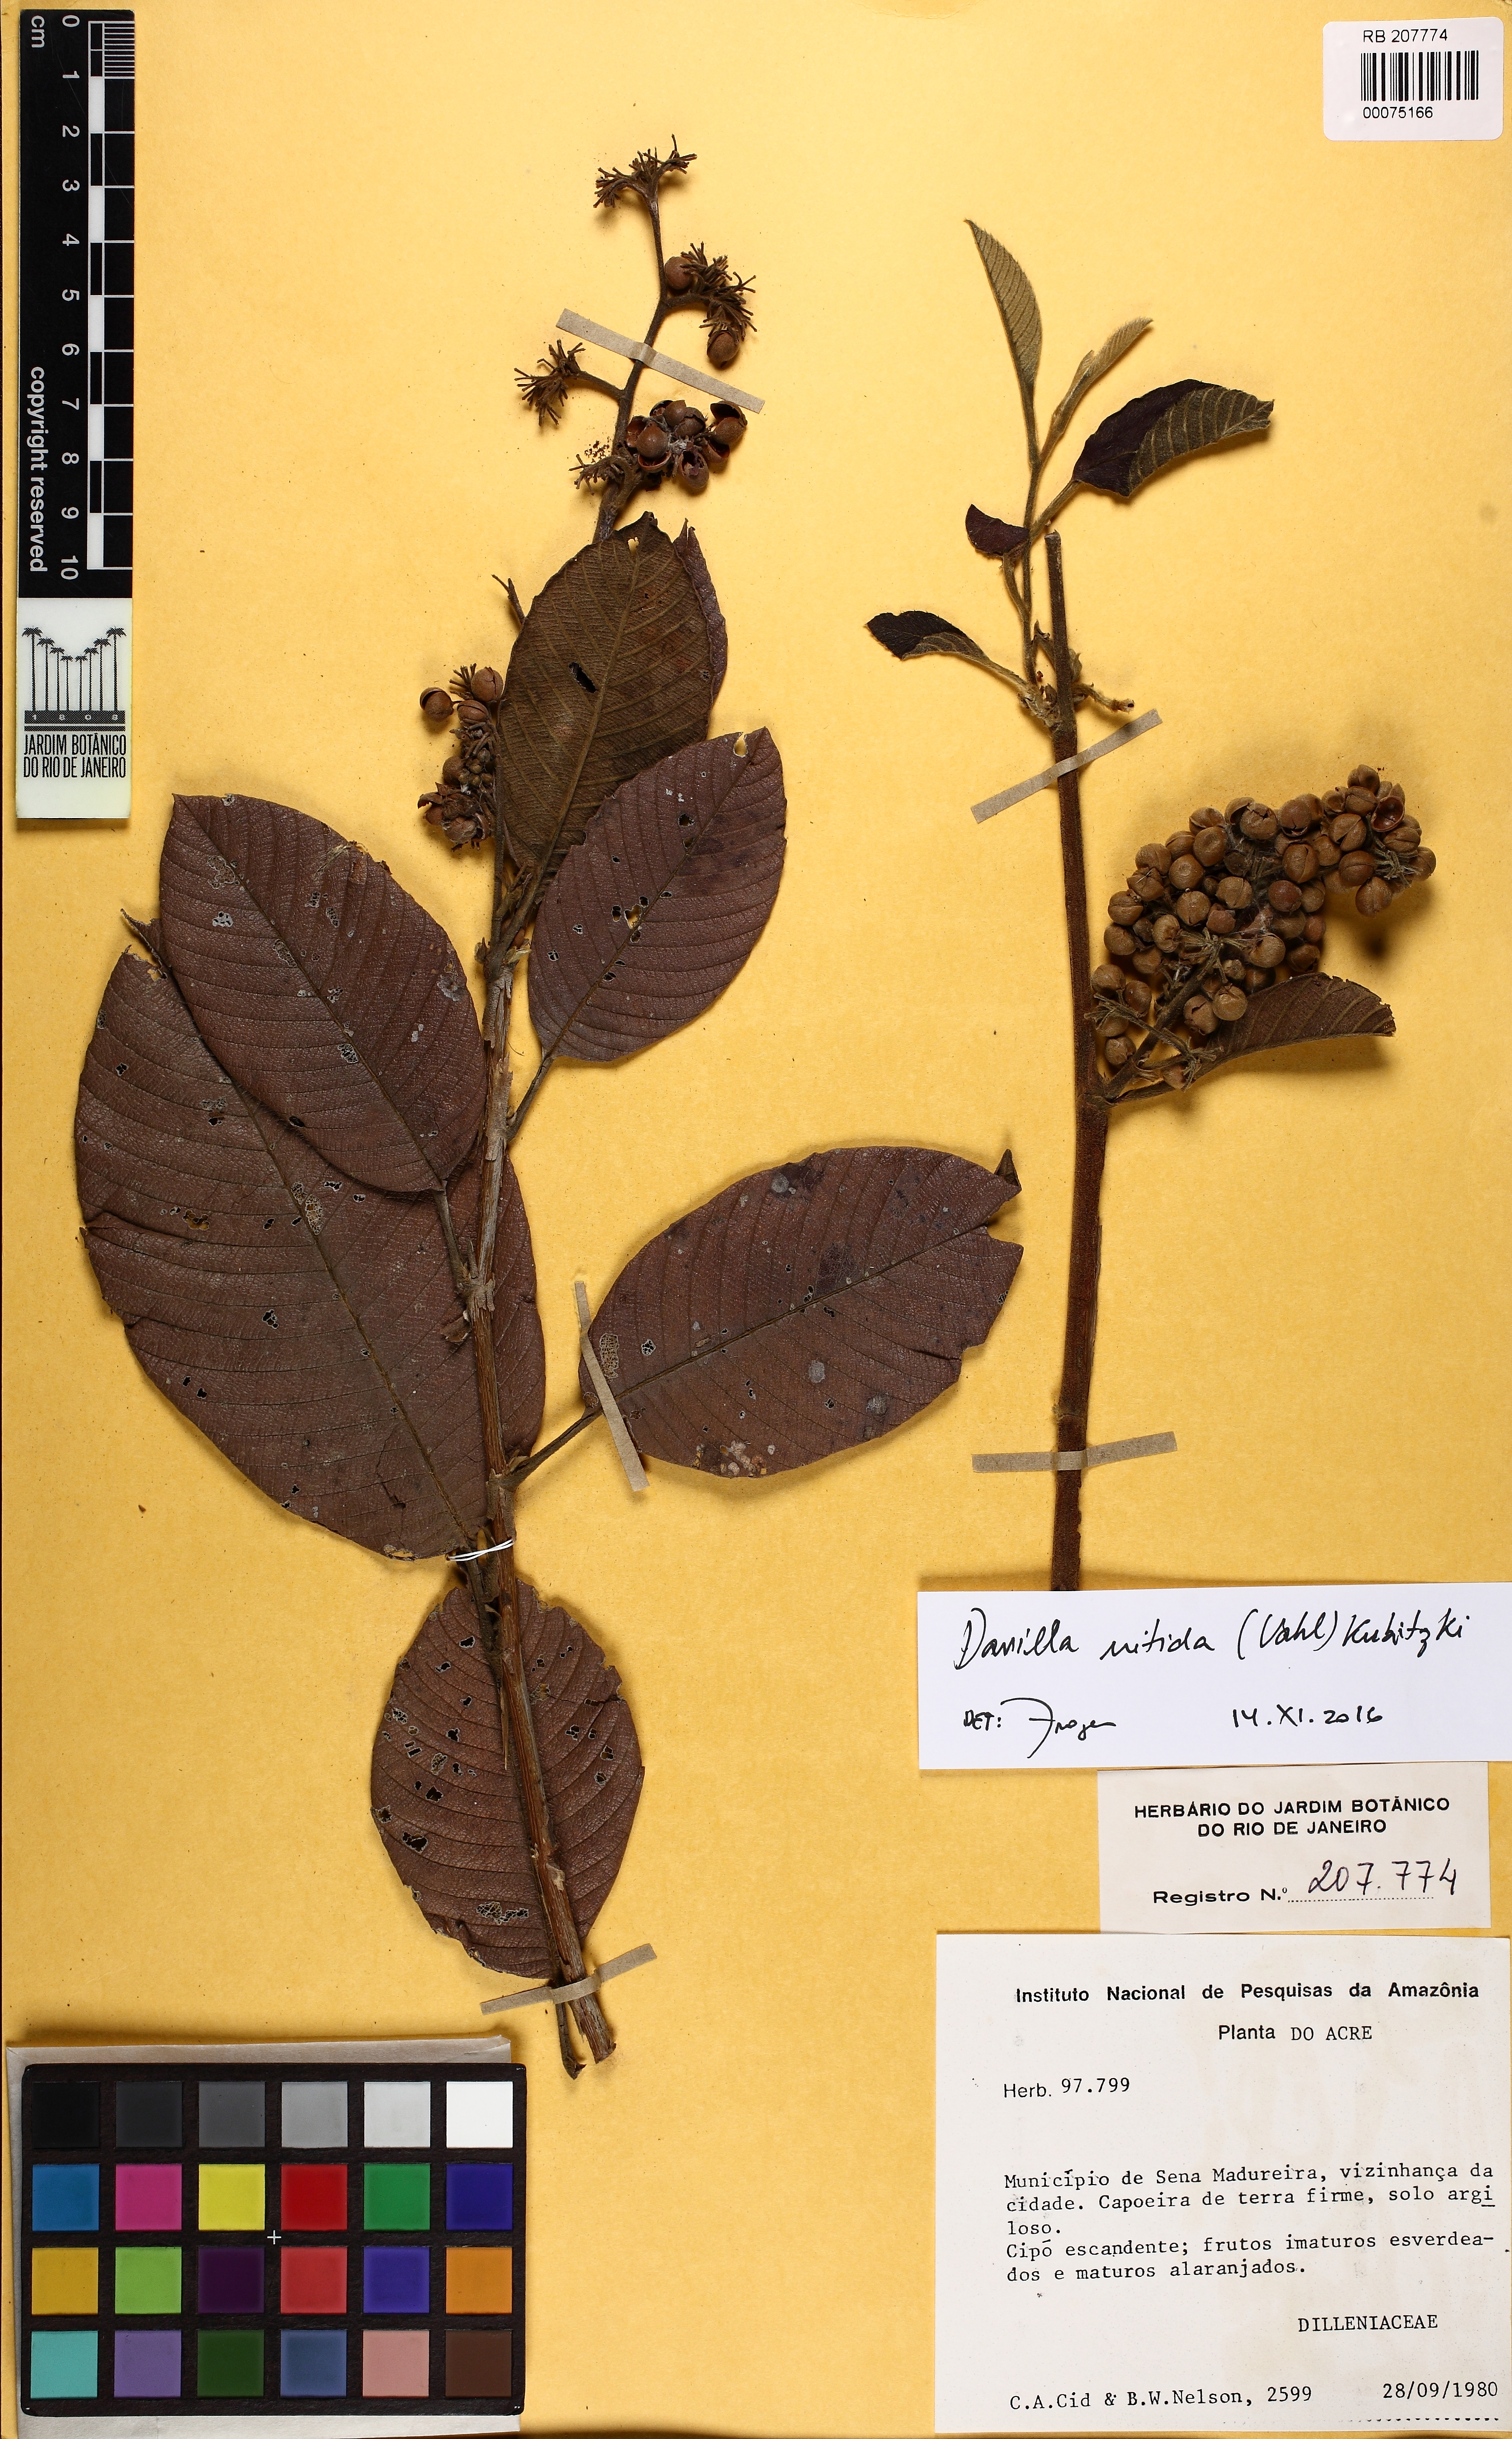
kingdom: Plantae
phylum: Tracheophyta
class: Magnoliopsida
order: Dilleniales
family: Dilleniaceae
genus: Davilla
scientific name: Davilla nitida
